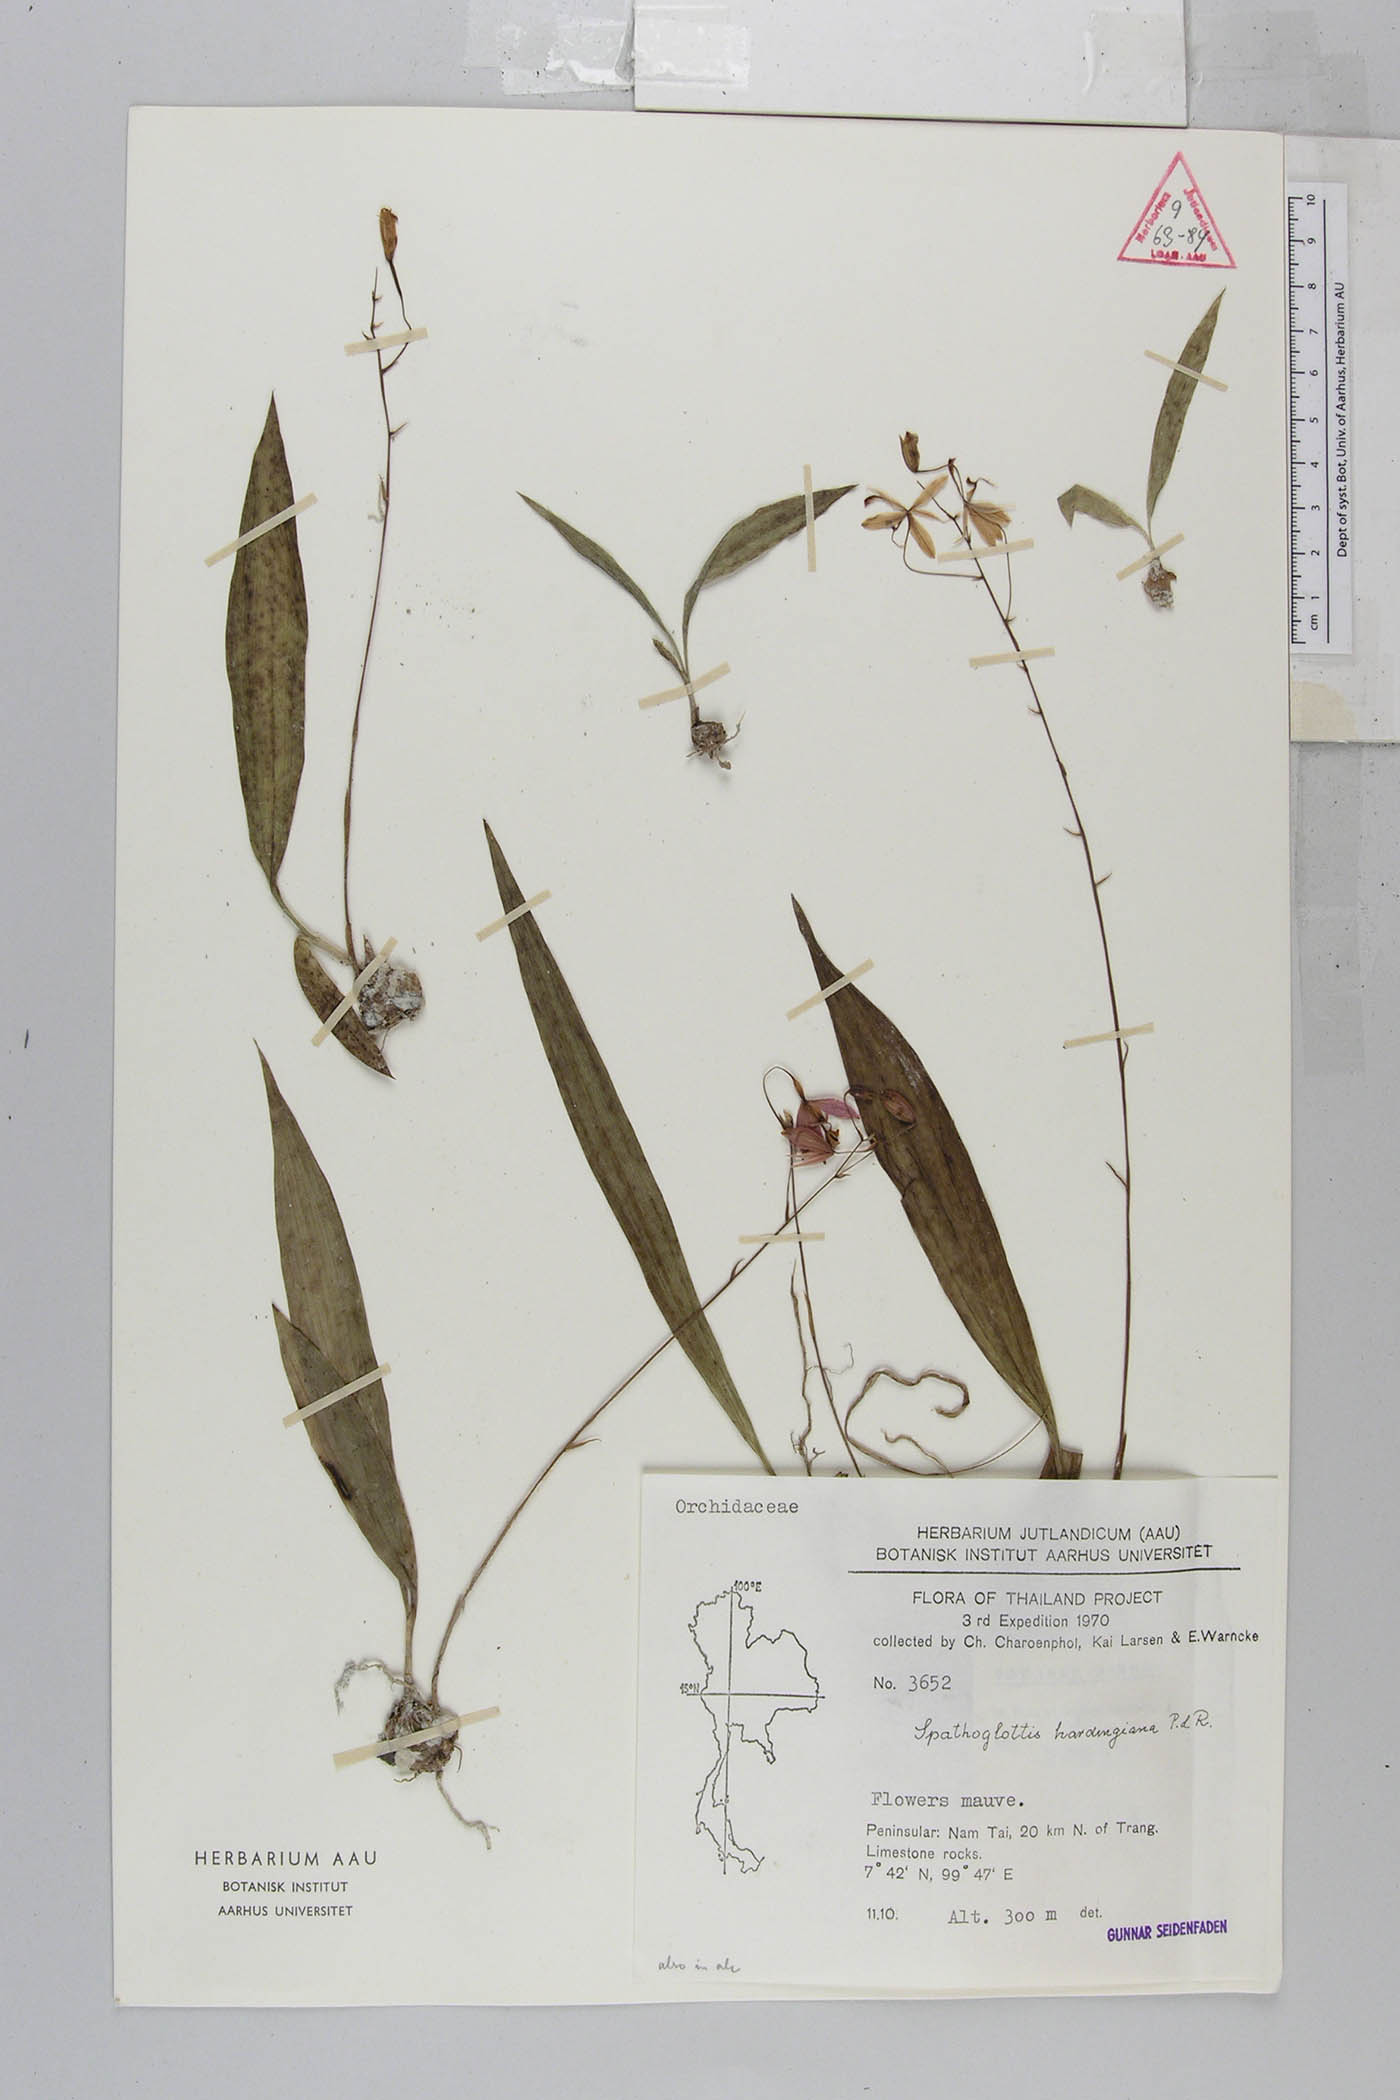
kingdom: Plantae
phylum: Tracheophyta
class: Liliopsida
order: Asparagales
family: Orchidaceae
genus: Spathoglottis
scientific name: Spathoglottis hardingiana
